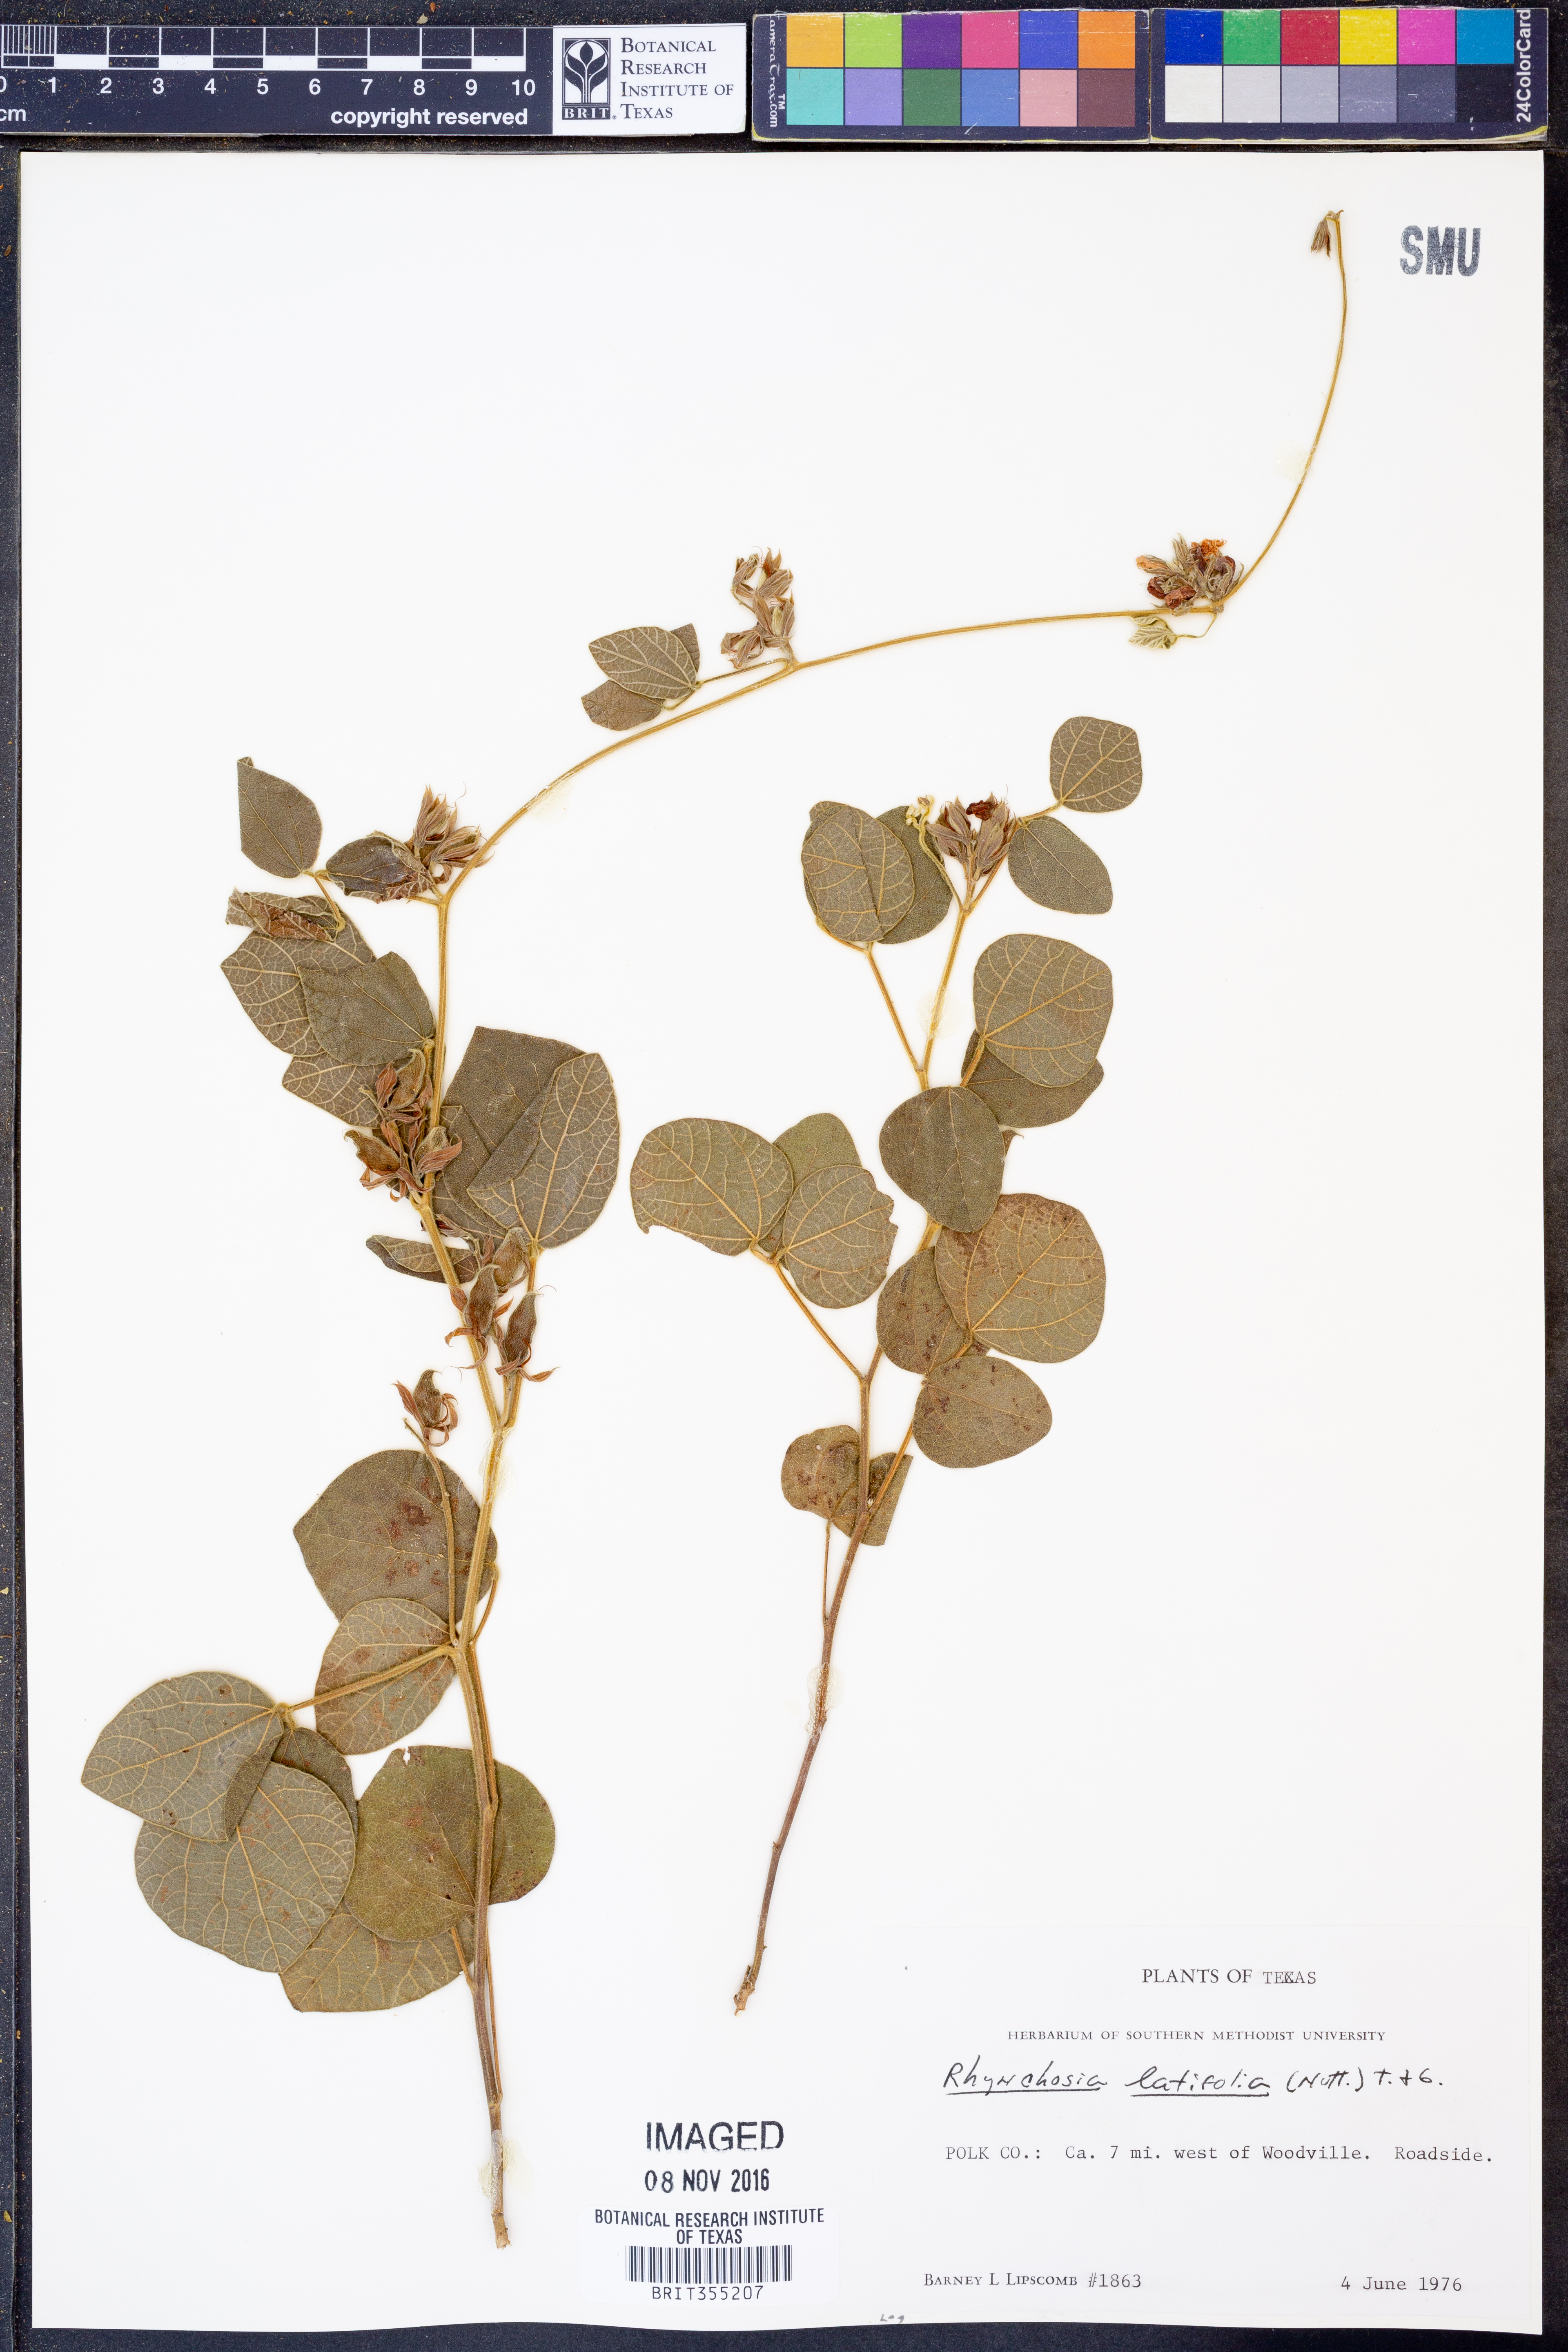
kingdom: Plantae
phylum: Tracheophyta
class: Magnoliopsida
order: Fabales
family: Fabaceae
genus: Rhynchosia
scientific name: Rhynchosia latifolia
